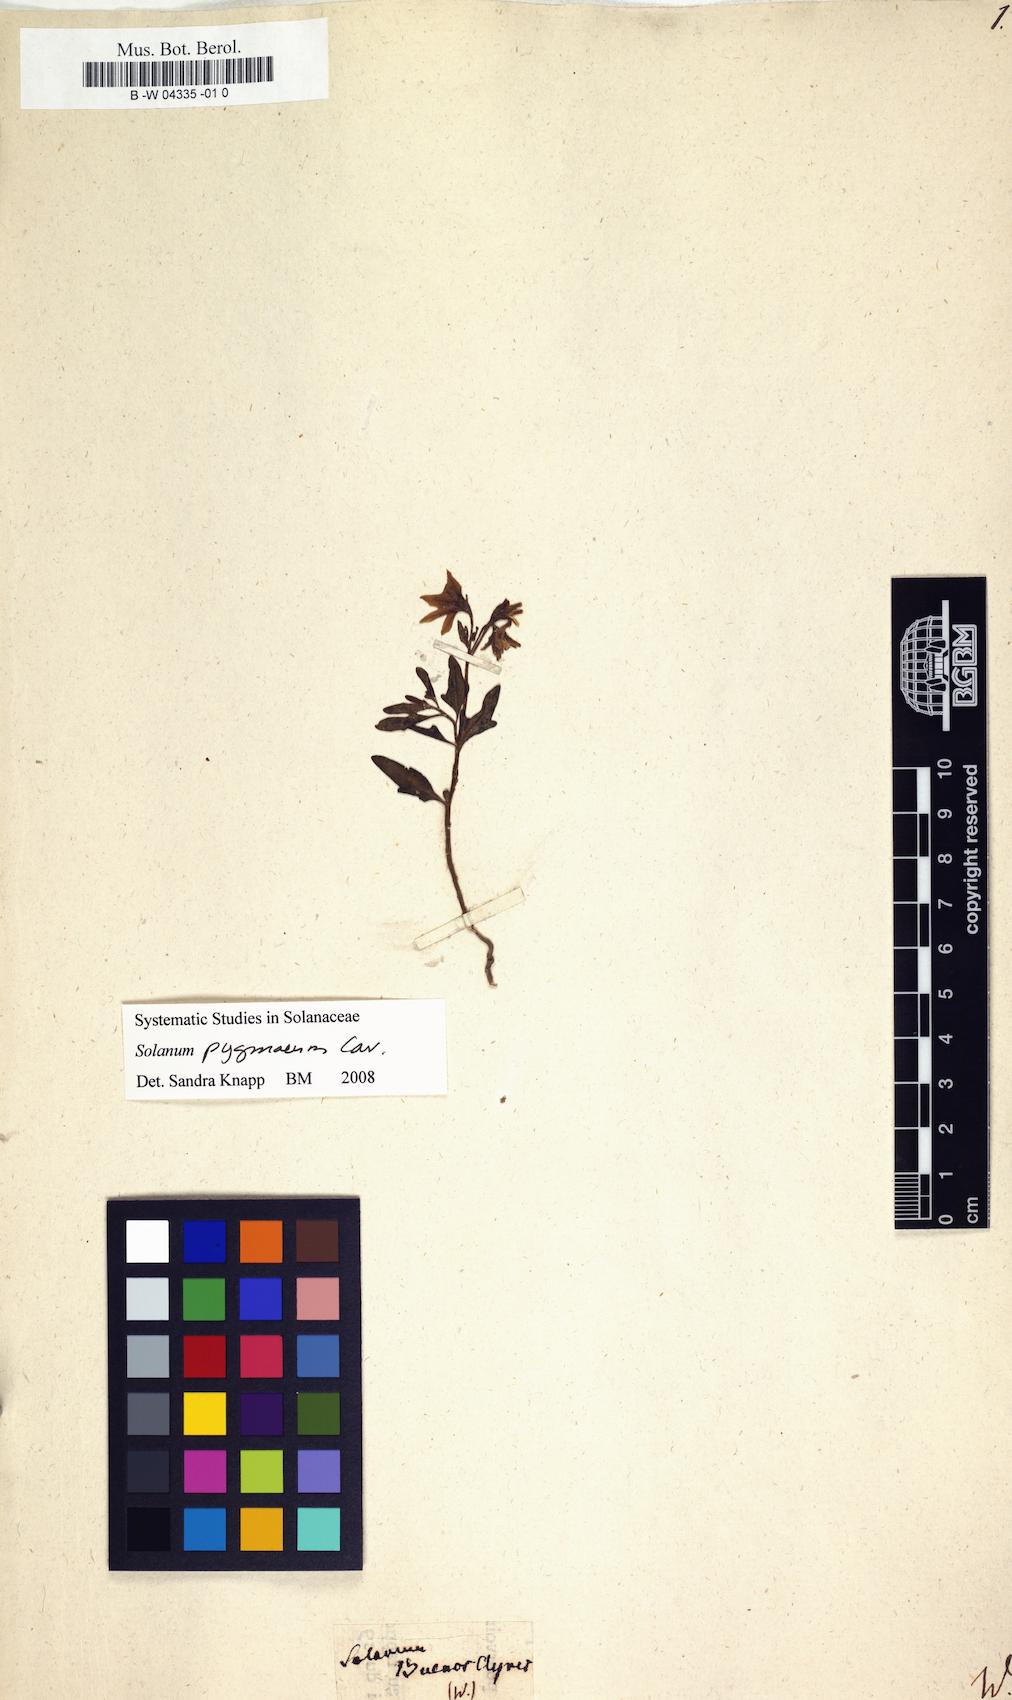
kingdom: Plantae
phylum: Tracheophyta
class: Magnoliopsida
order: Solanales
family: Solanaceae
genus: Solanum
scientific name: Solanum pygmaeum
